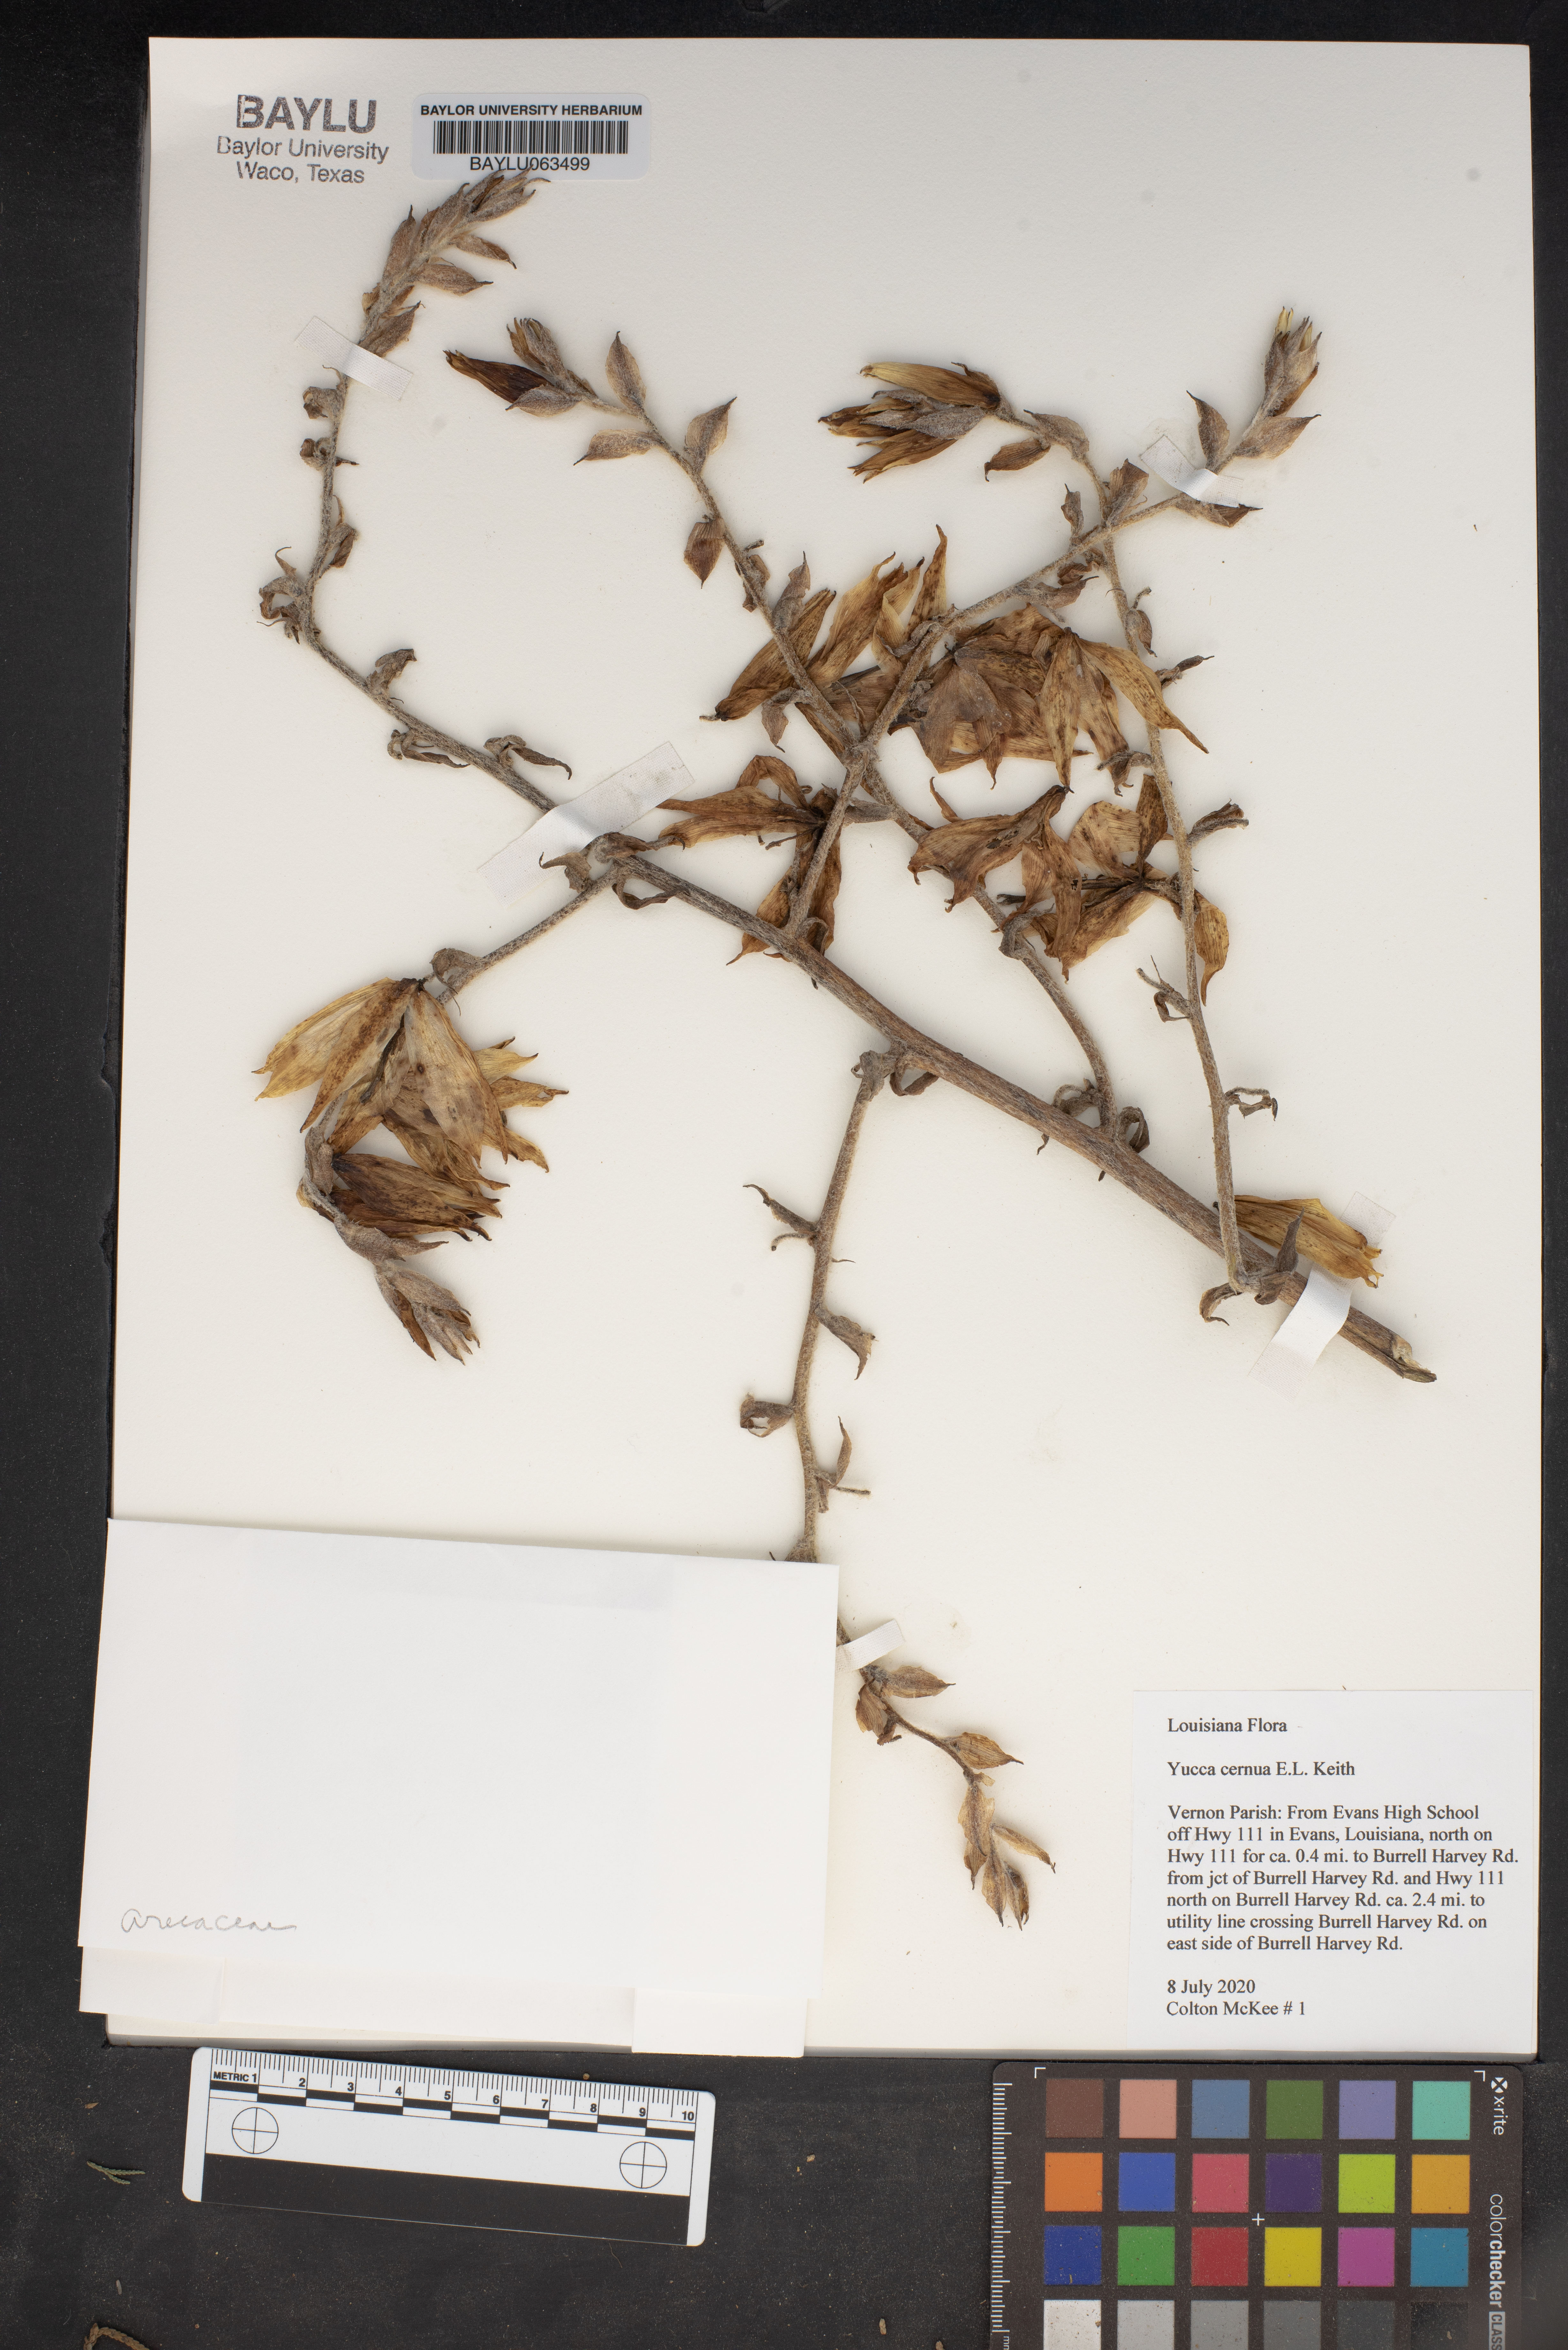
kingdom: Plantae
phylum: Tracheophyta
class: Liliopsida
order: Asparagales
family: Asparagaceae
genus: Yucca
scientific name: Yucca cernua
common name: Nodding yucca
